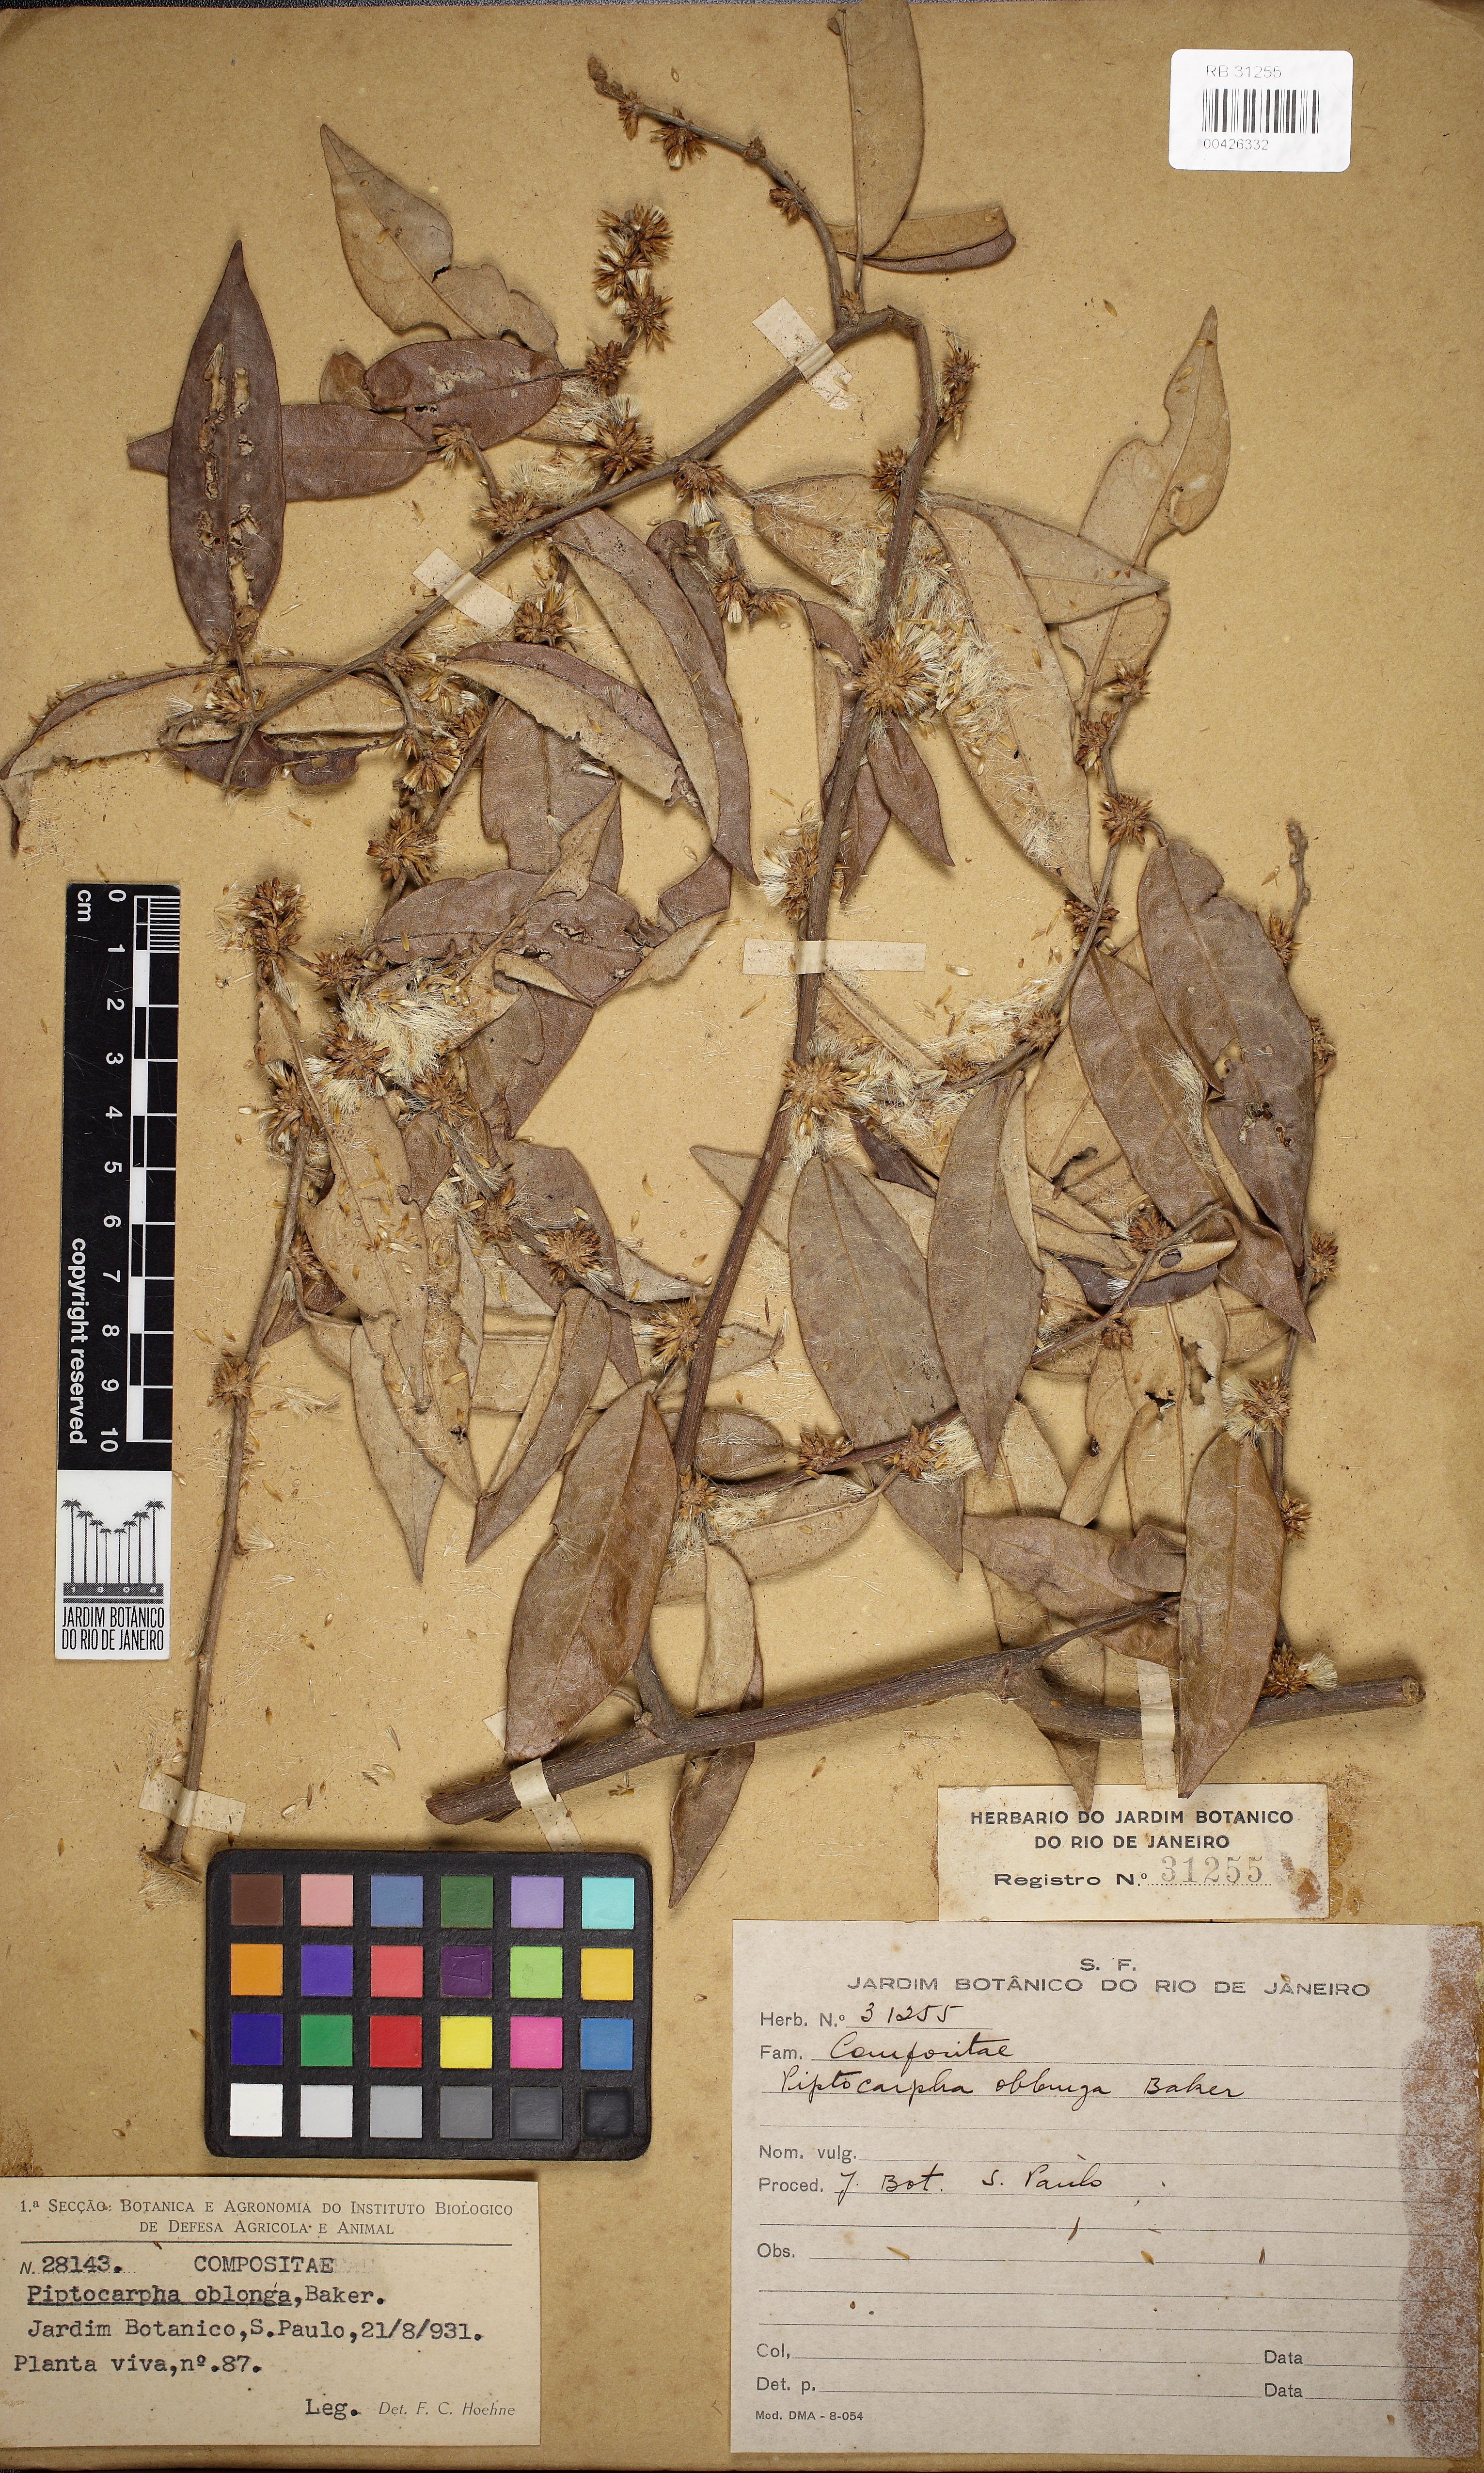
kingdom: Plantae
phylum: Tracheophyta
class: Magnoliopsida
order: Asterales
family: Asteraceae
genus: Piptocarpha
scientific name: Piptocarpha oblonga
